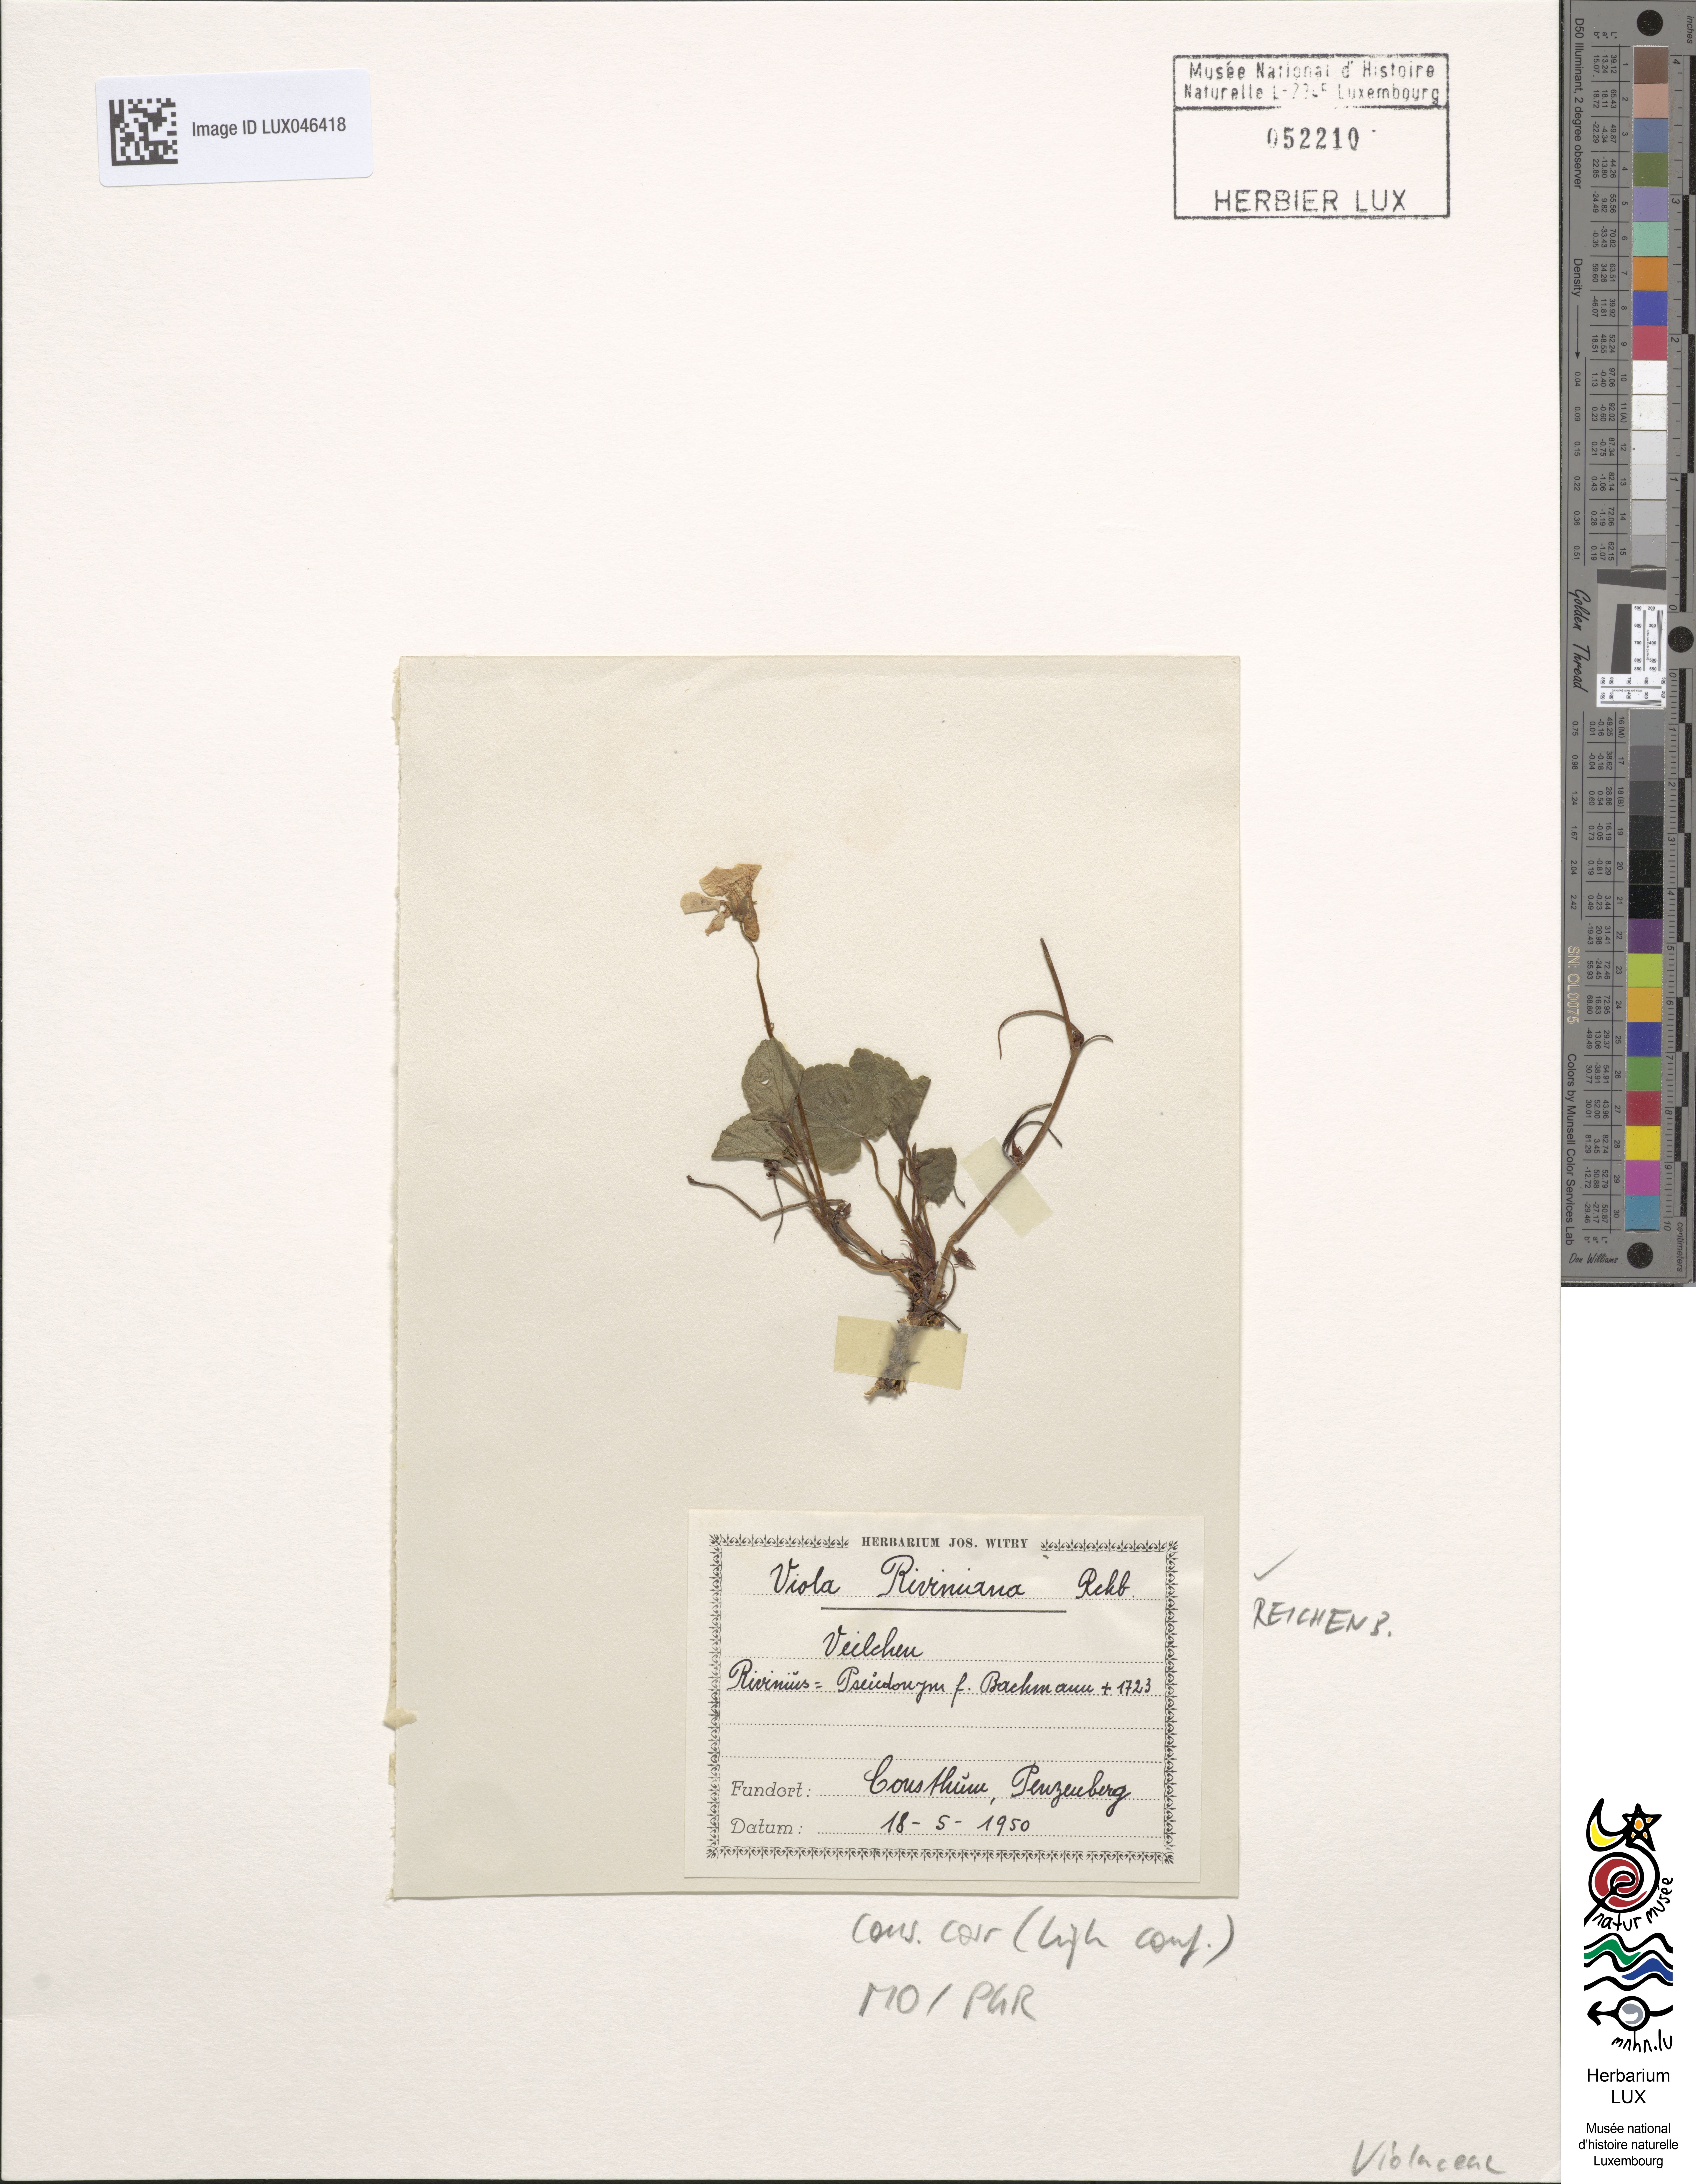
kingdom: Plantae
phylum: Tracheophyta
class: Magnoliopsida
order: Malpighiales
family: Violaceae
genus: Viola
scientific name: Viola riviniana
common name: Common dog-violet
